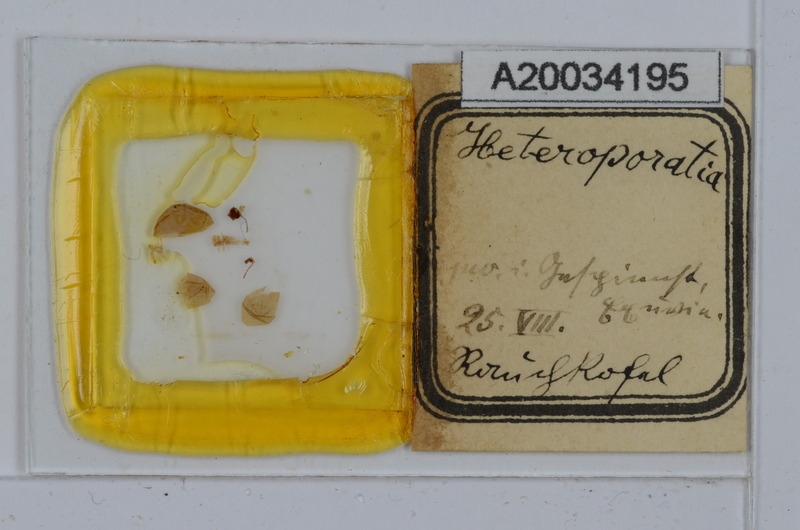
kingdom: Animalia
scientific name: Animalia
